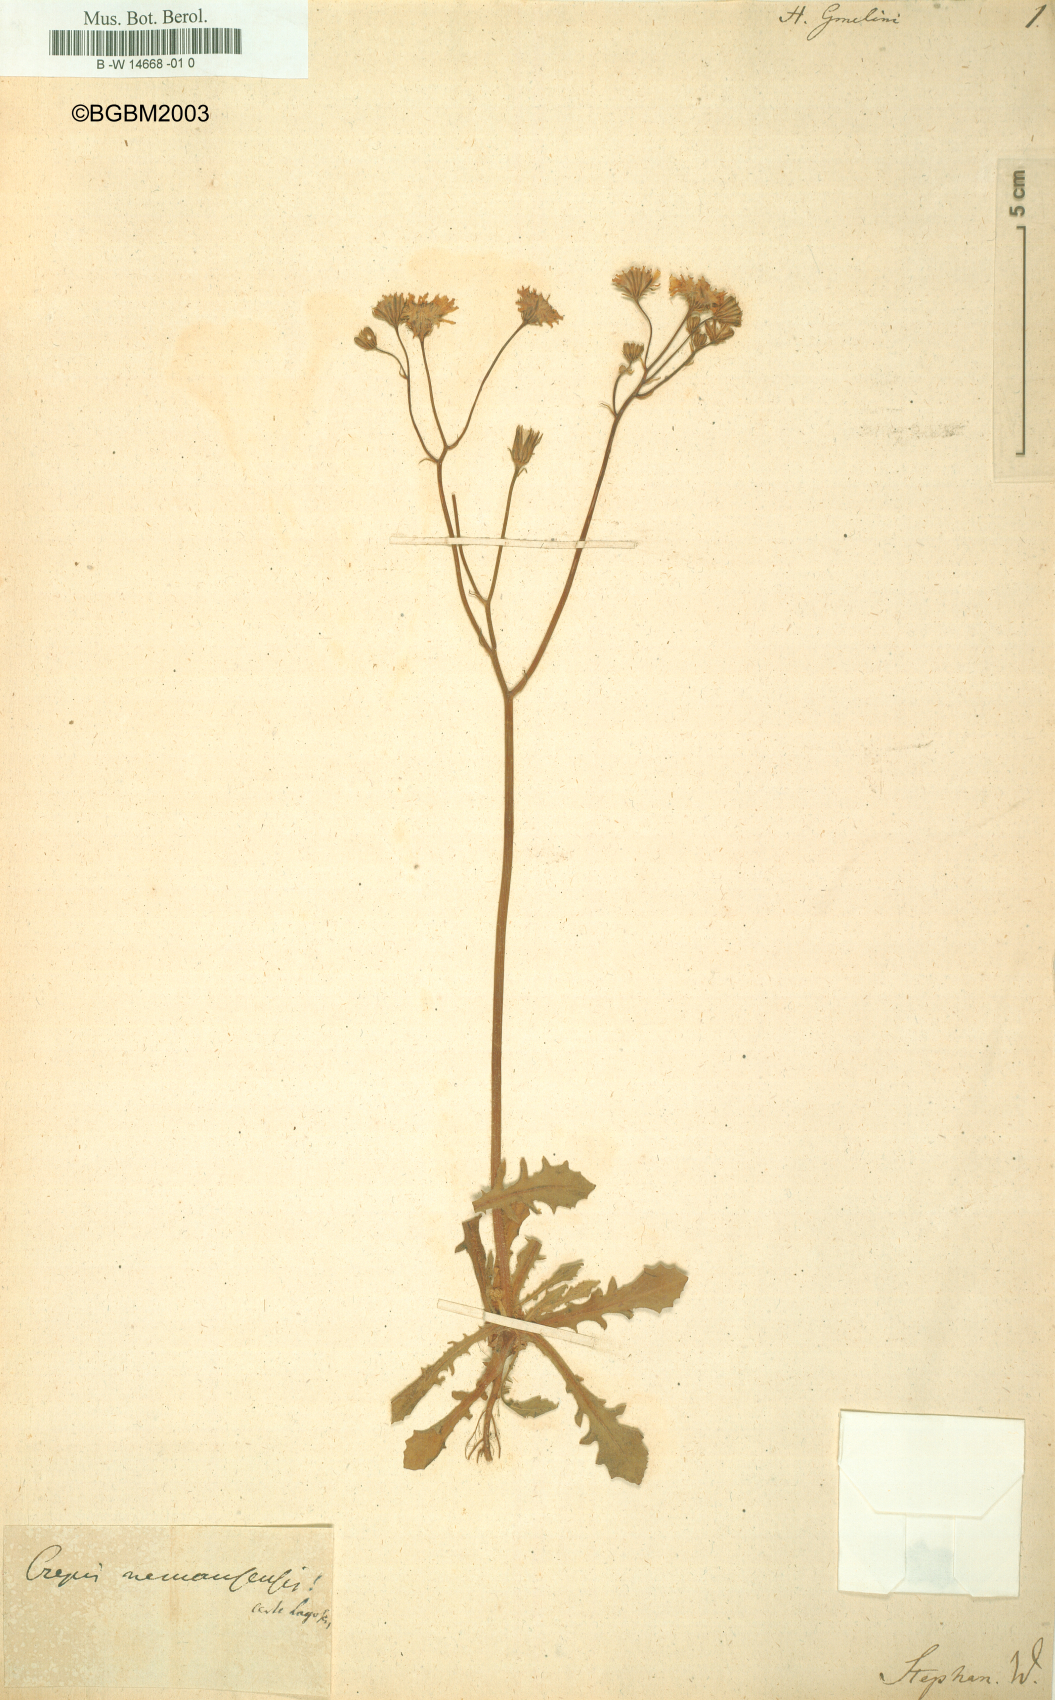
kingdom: Plantae
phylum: Tracheophyta
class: Magnoliopsida
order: Asterales
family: Asteraceae
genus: Hieracium
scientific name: Hieracium gmelinii
